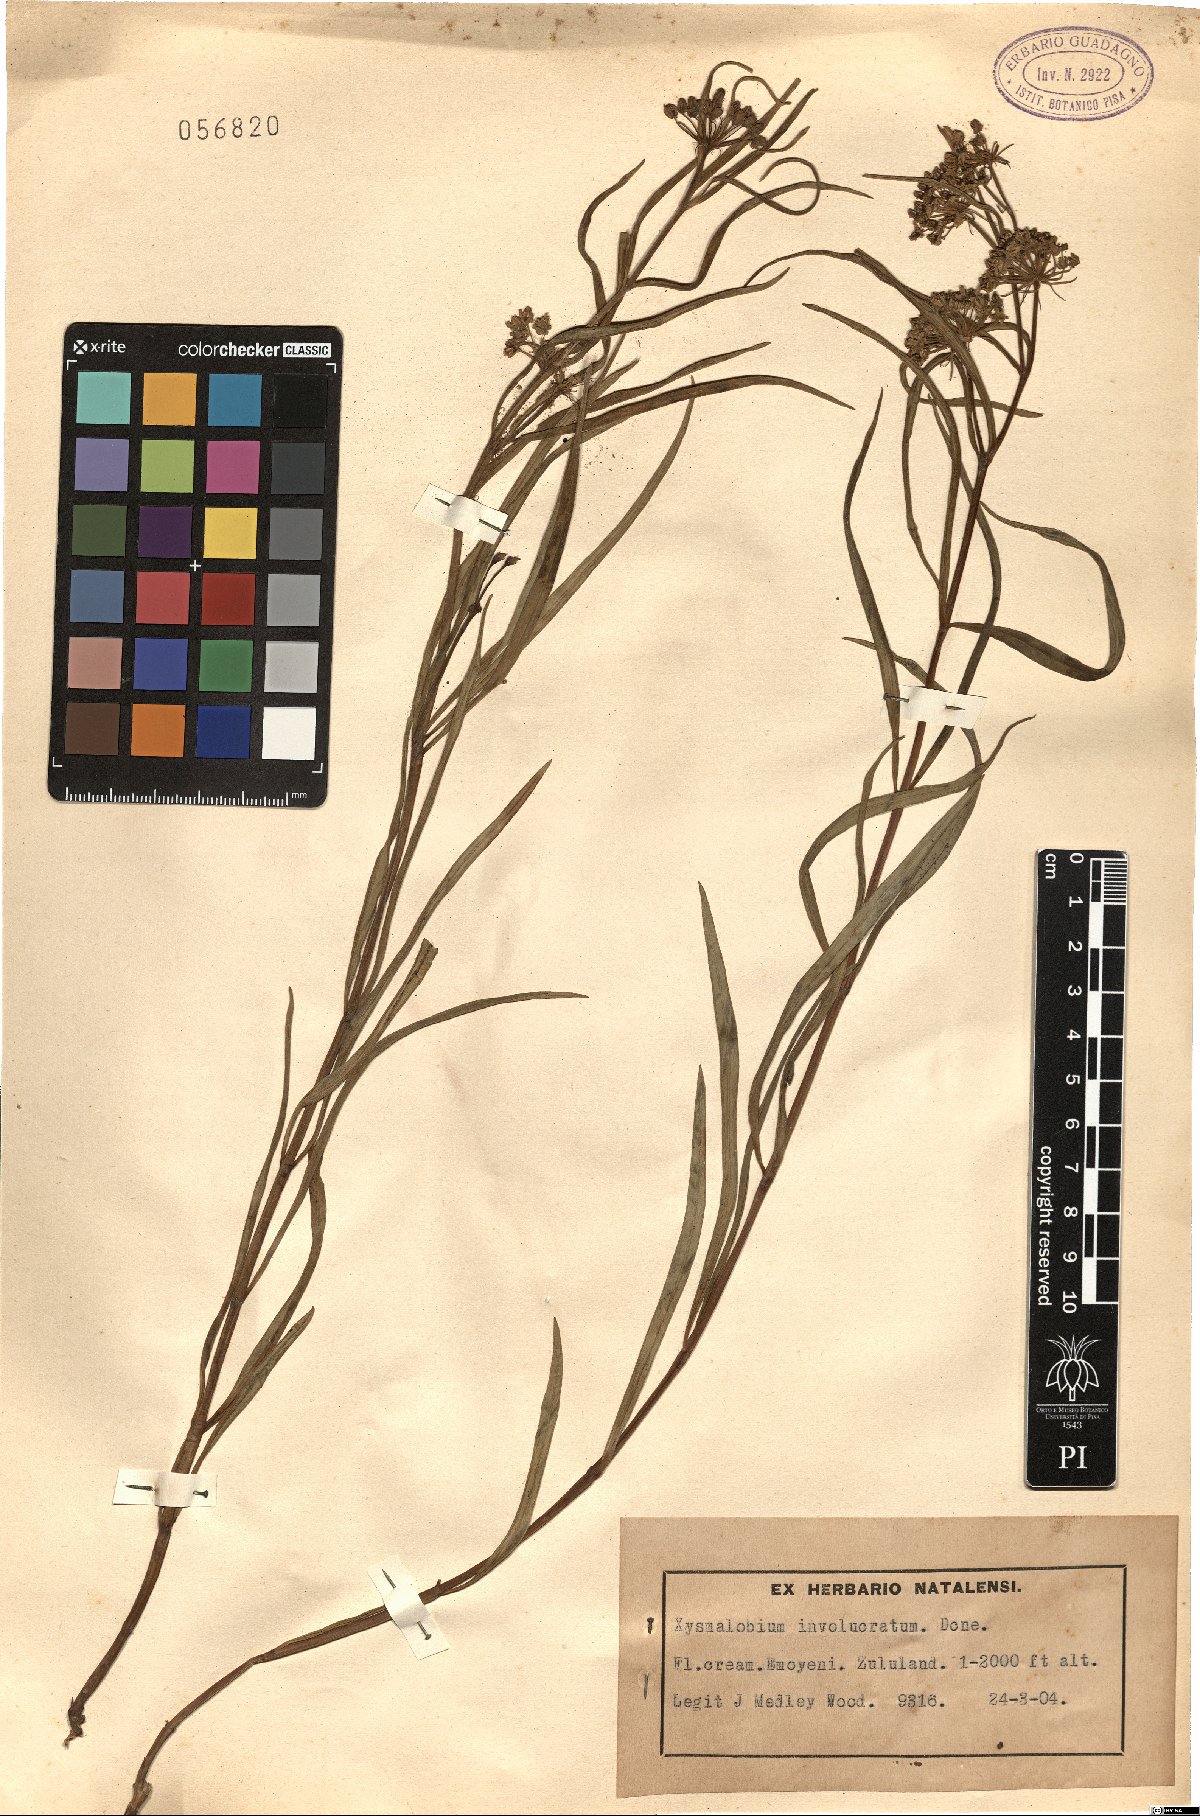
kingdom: Plantae
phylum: Tracheophyta
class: Magnoliopsida
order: Gentianales
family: Apocynaceae
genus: Xysmalobium
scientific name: Xysmalobium involucratum
